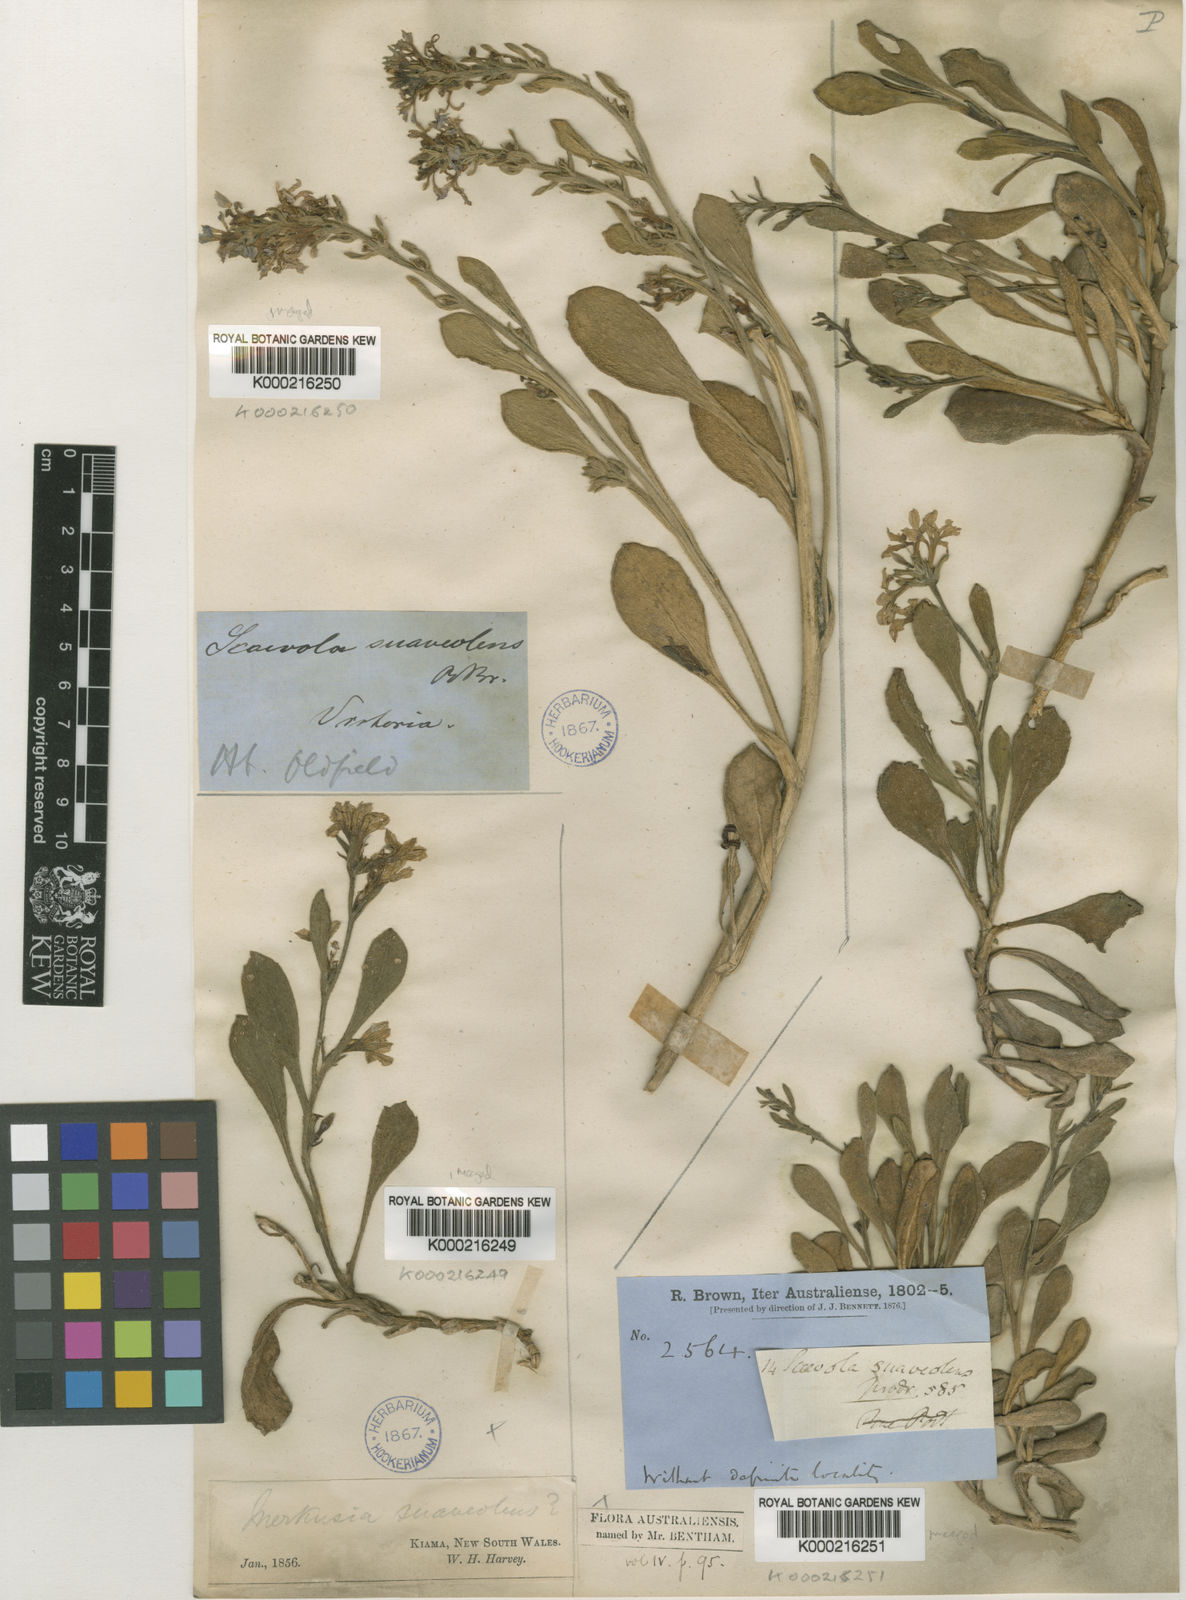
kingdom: Plantae
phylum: Tracheophyta
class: Magnoliopsida
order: Asterales
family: Goodeniaceae
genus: Scaevola
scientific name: Scaevola calendulacea
